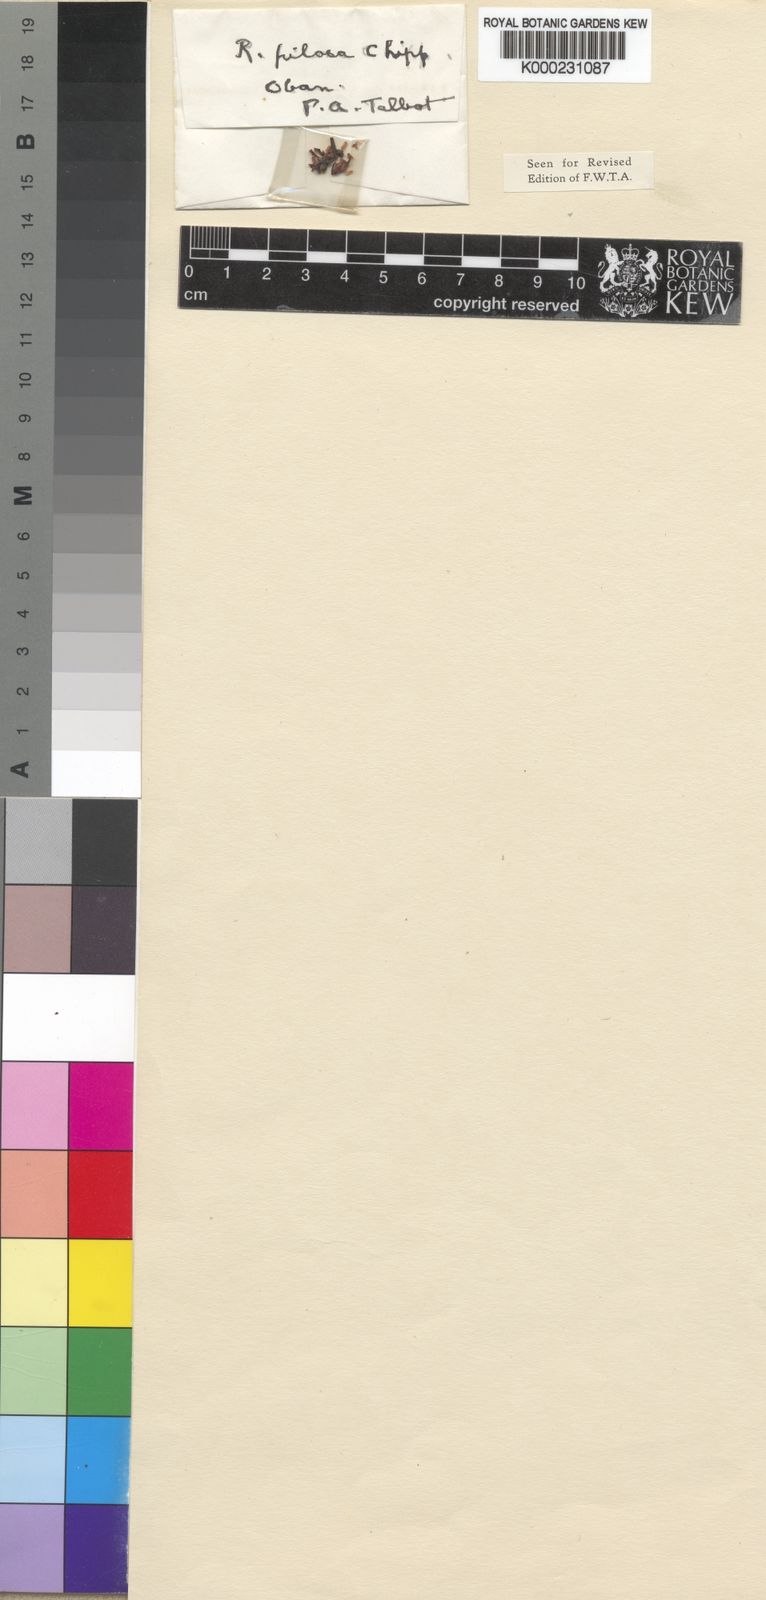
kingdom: Plantae
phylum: Tracheophyta
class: Magnoliopsida
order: Malpighiales
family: Violaceae
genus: Rinorea
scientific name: Rinorea pilosa
